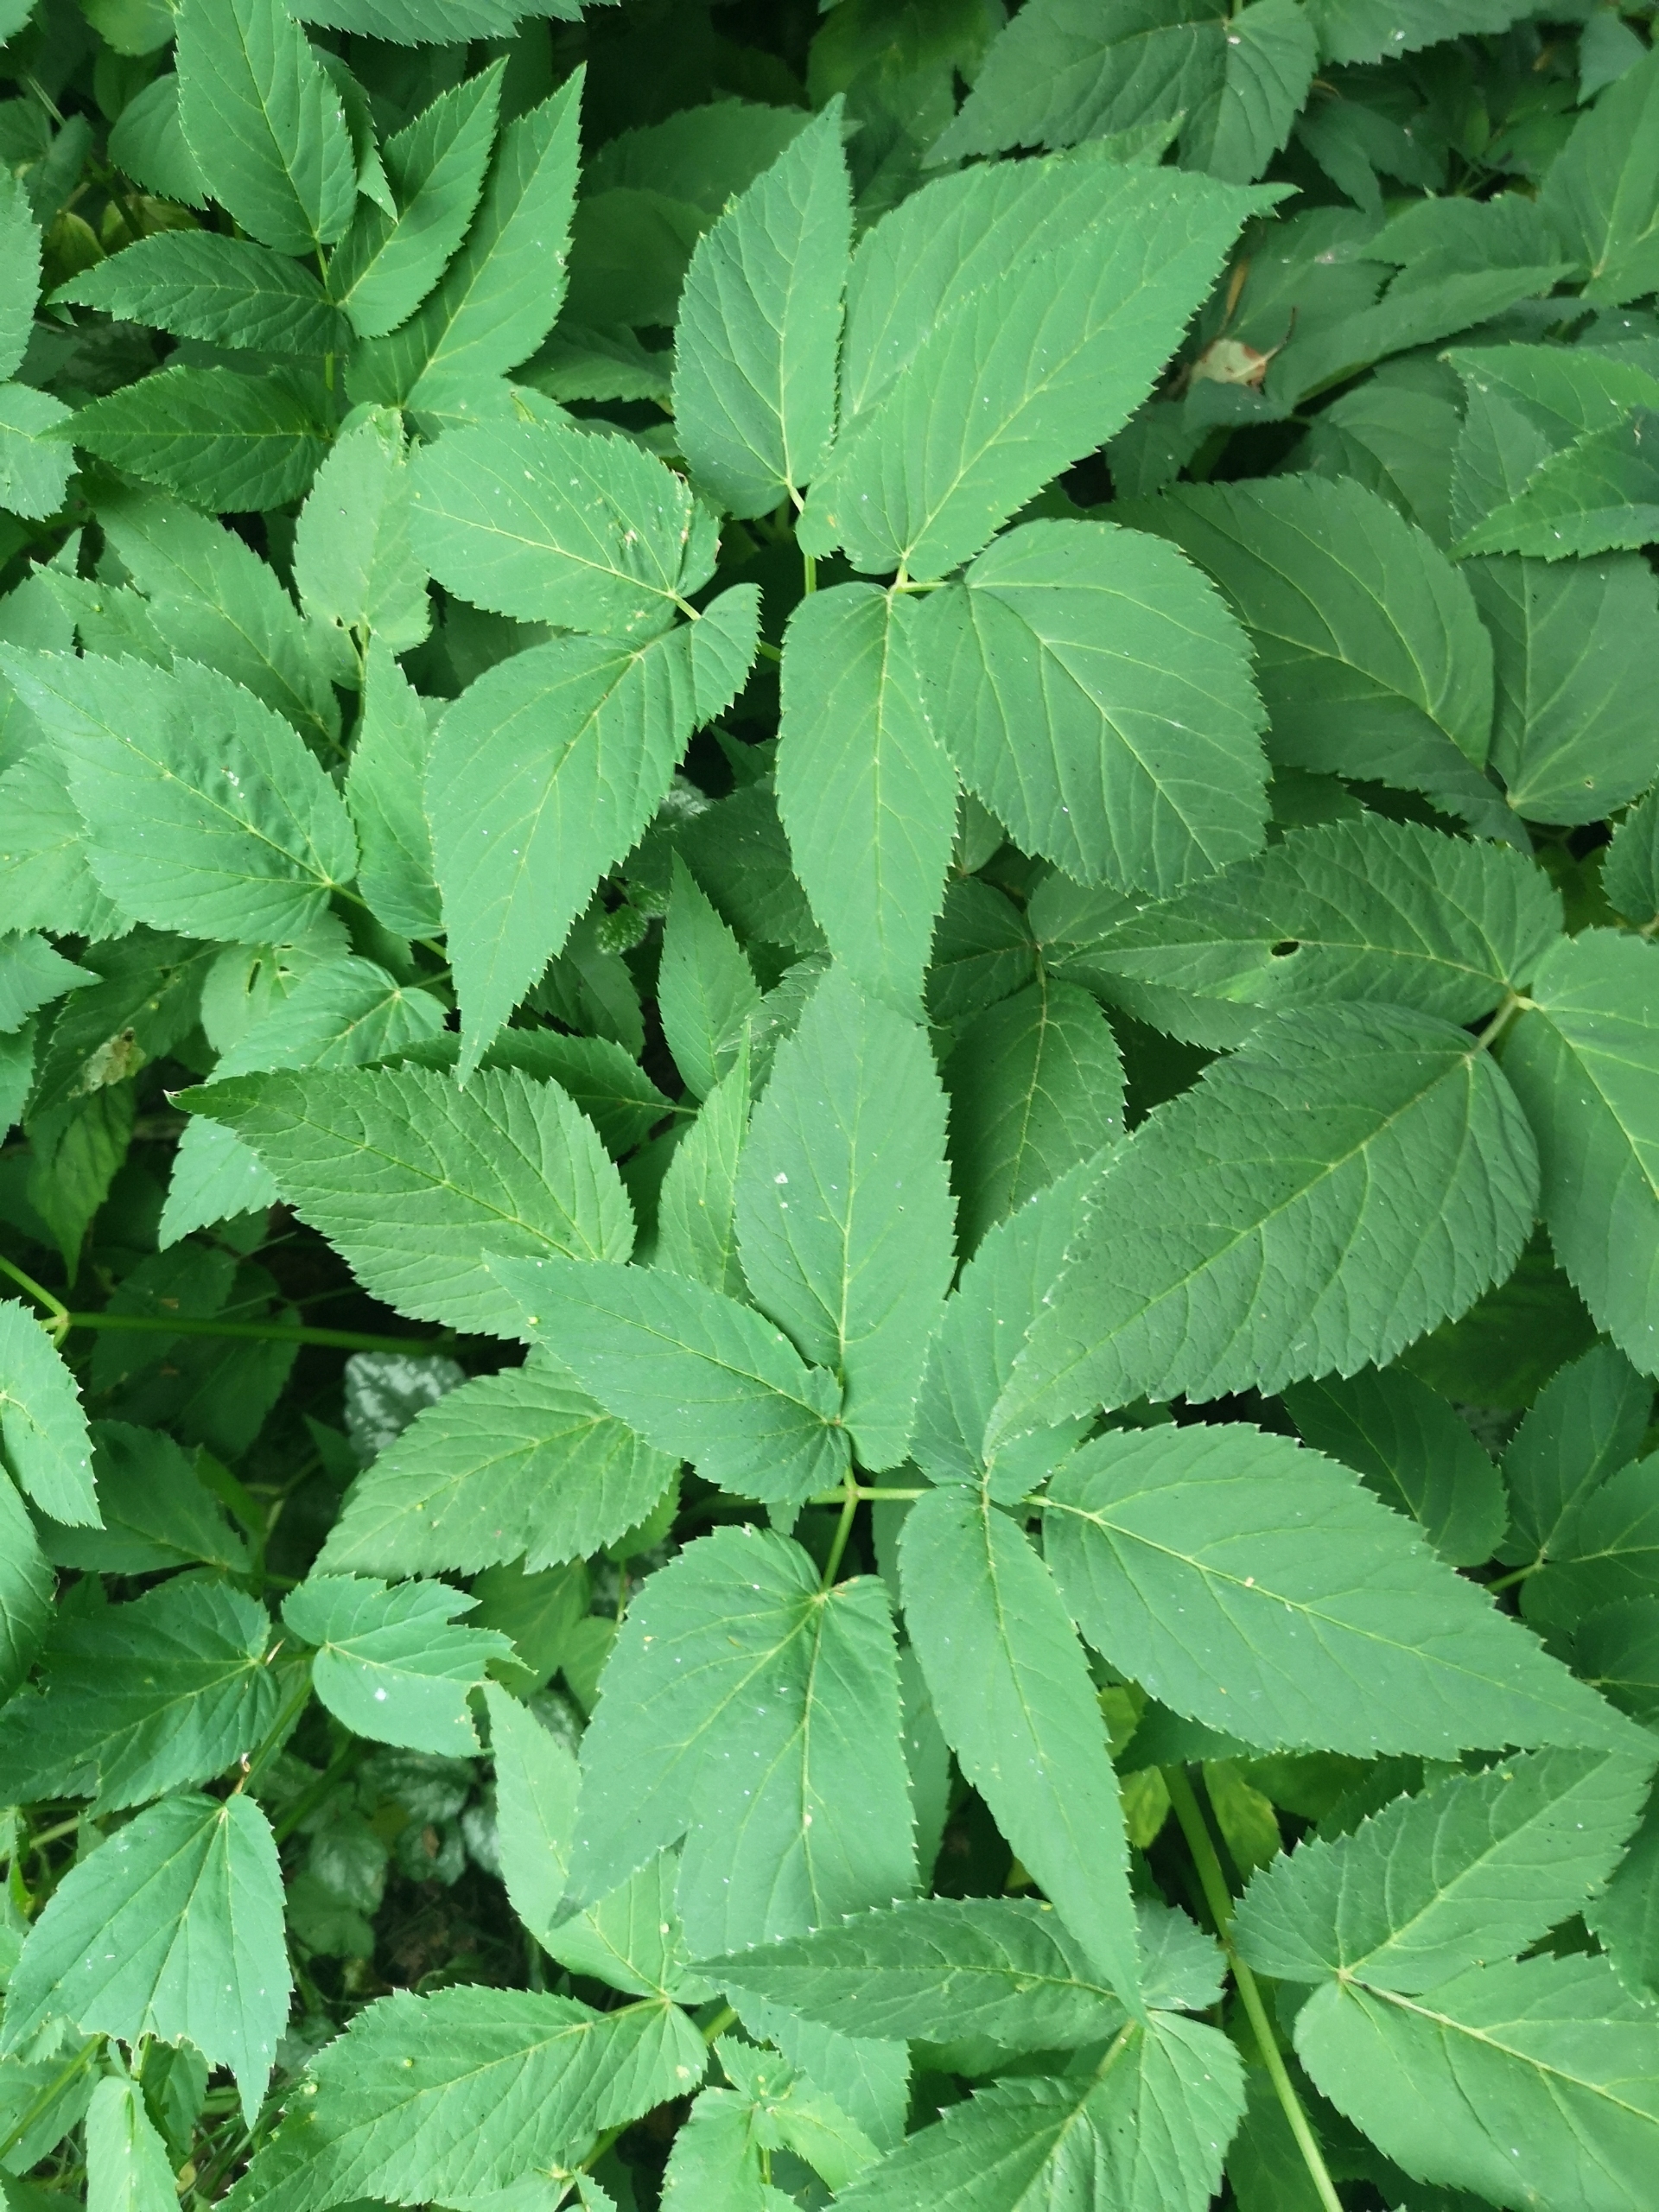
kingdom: Plantae
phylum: Tracheophyta
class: Magnoliopsida
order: Apiales
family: Apiaceae
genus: Aegopodium
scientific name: Aegopodium podagraria
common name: Skvalderkål
